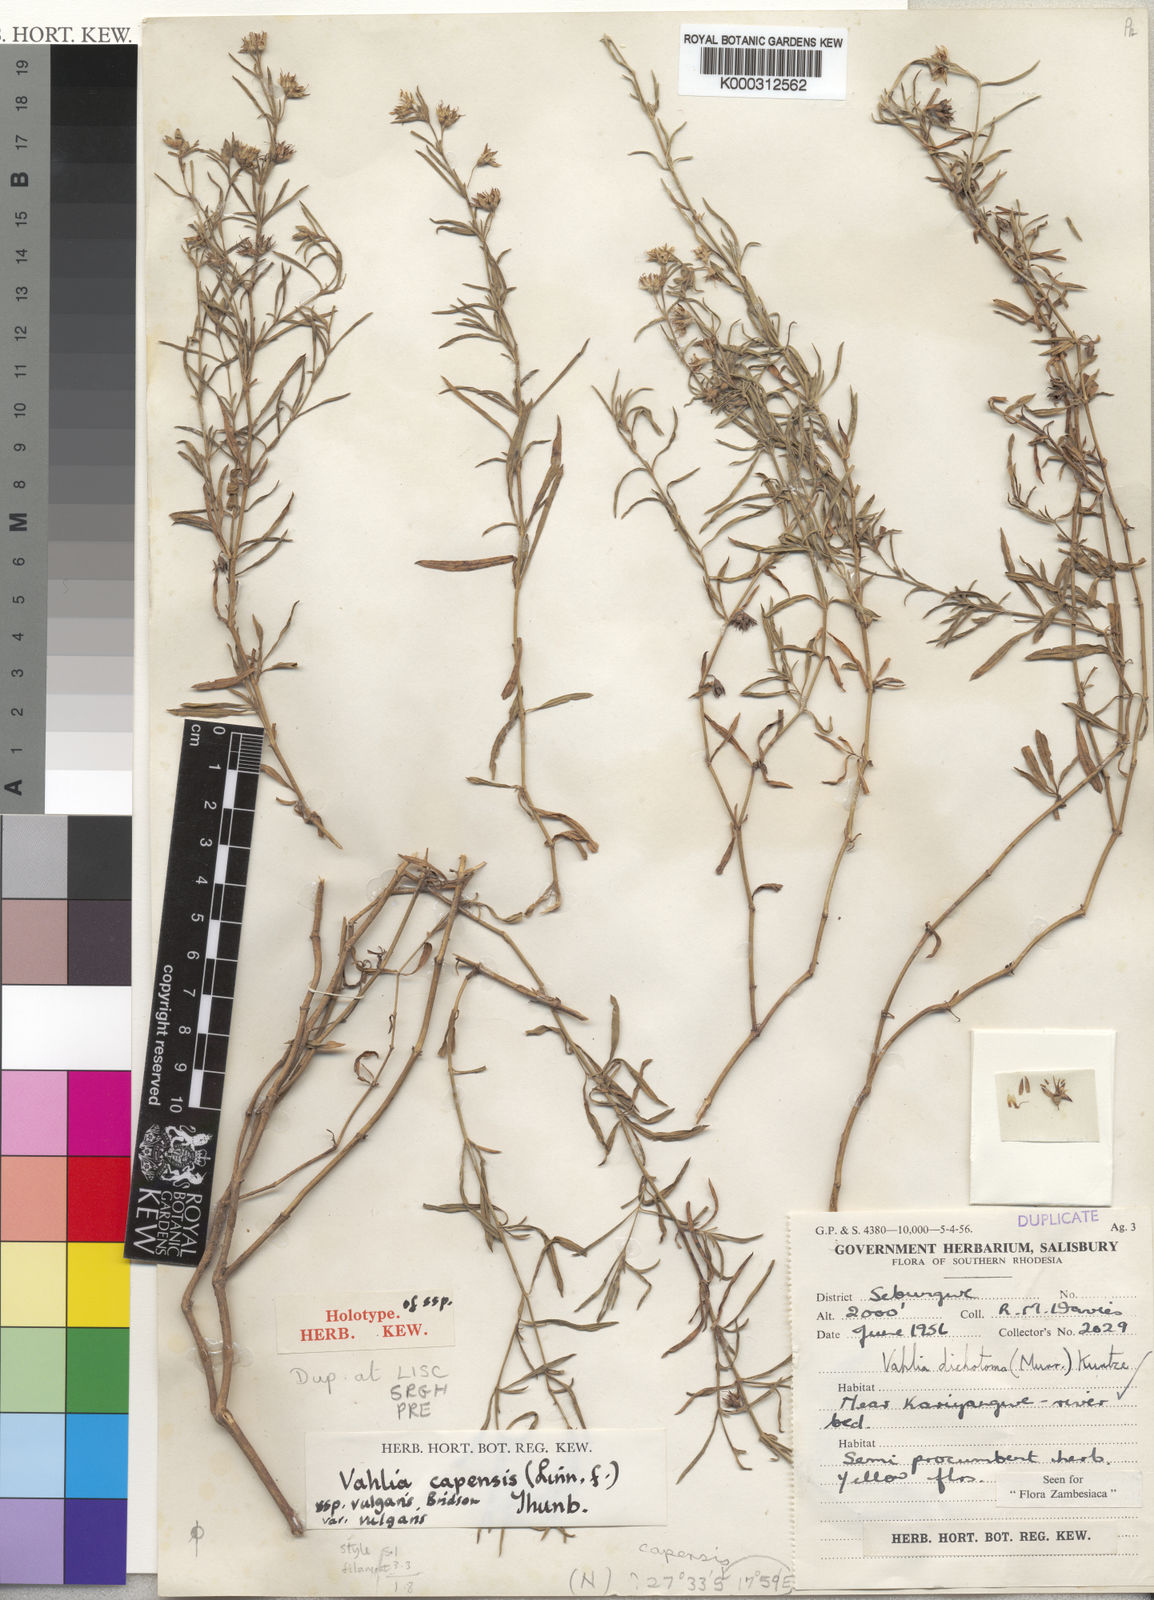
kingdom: Plantae
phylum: Tracheophyta
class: Magnoliopsida
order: Vahliales
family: Vahliaceae
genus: Vahlia
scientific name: Vahlia capensis
